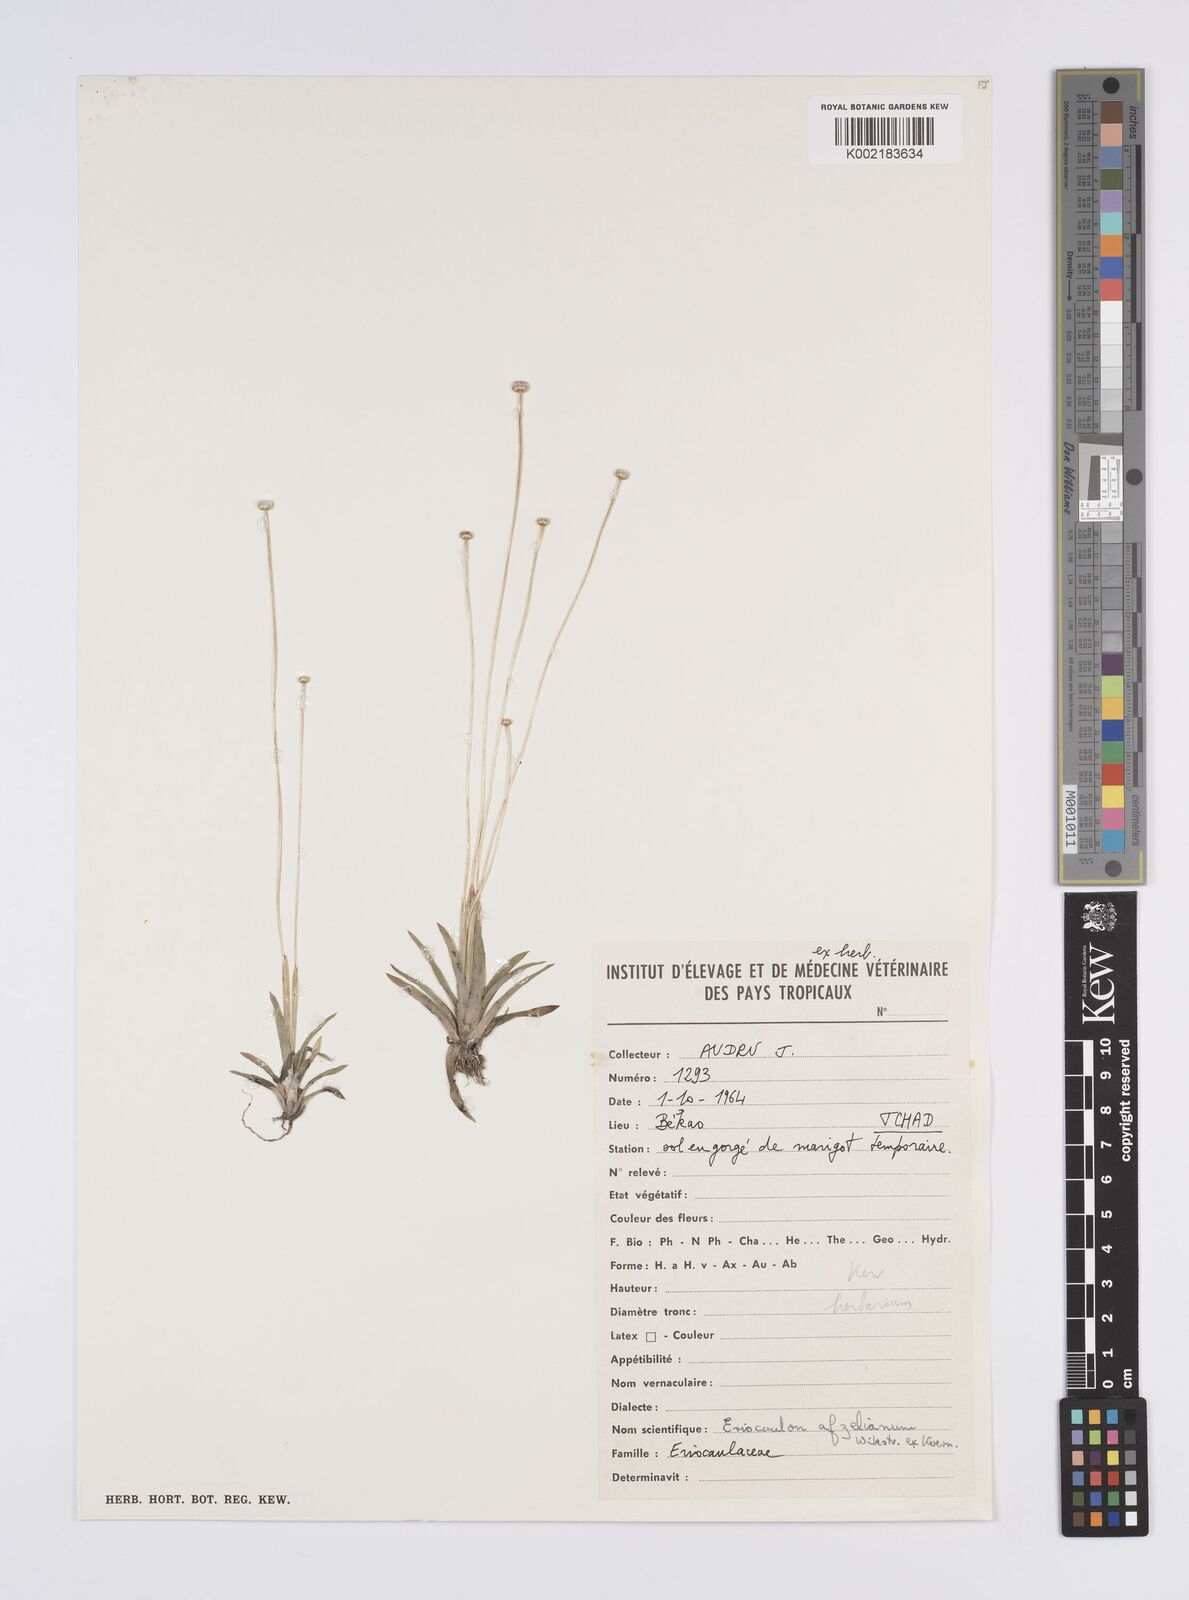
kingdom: Plantae
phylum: Tracheophyta
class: Liliopsida
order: Poales
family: Eriocaulaceae
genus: Eriocaulon
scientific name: Eriocaulon afzelianum
